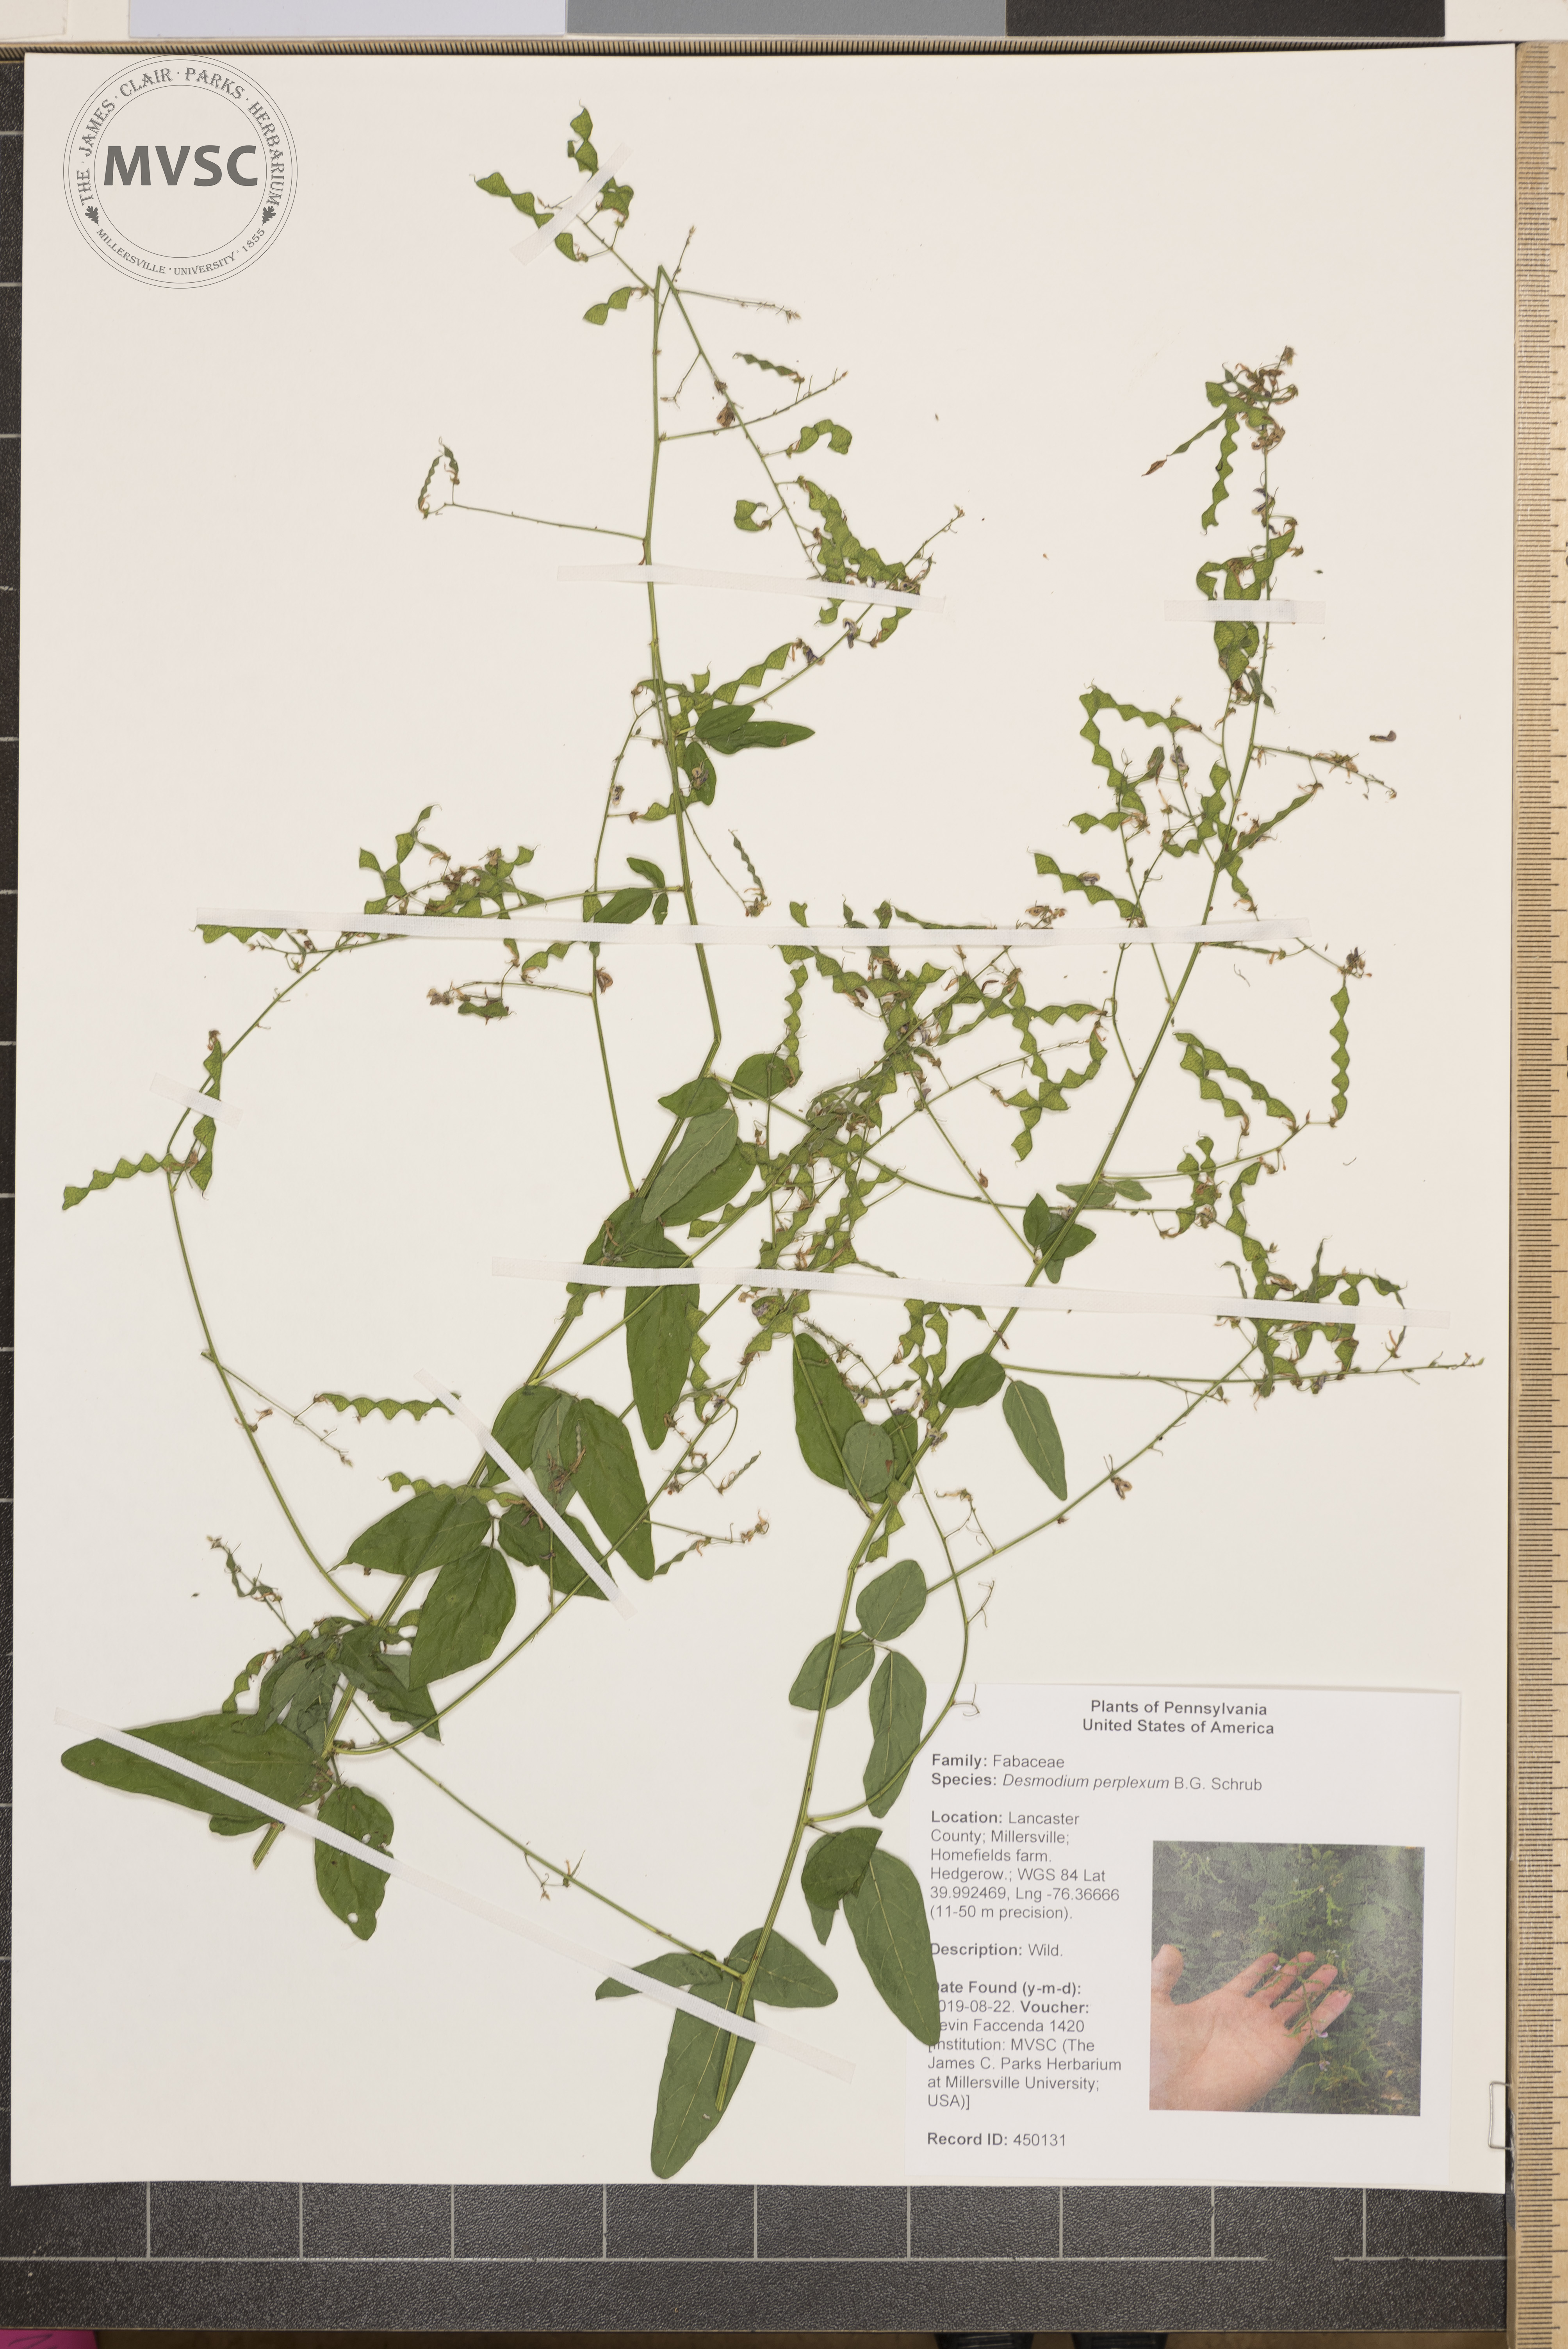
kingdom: Plantae
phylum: Tracheophyta
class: Magnoliopsida
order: Fabales
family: Fabaceae
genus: Desmodium
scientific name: Desmodium perplexum
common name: Perplexed tick trefoil
